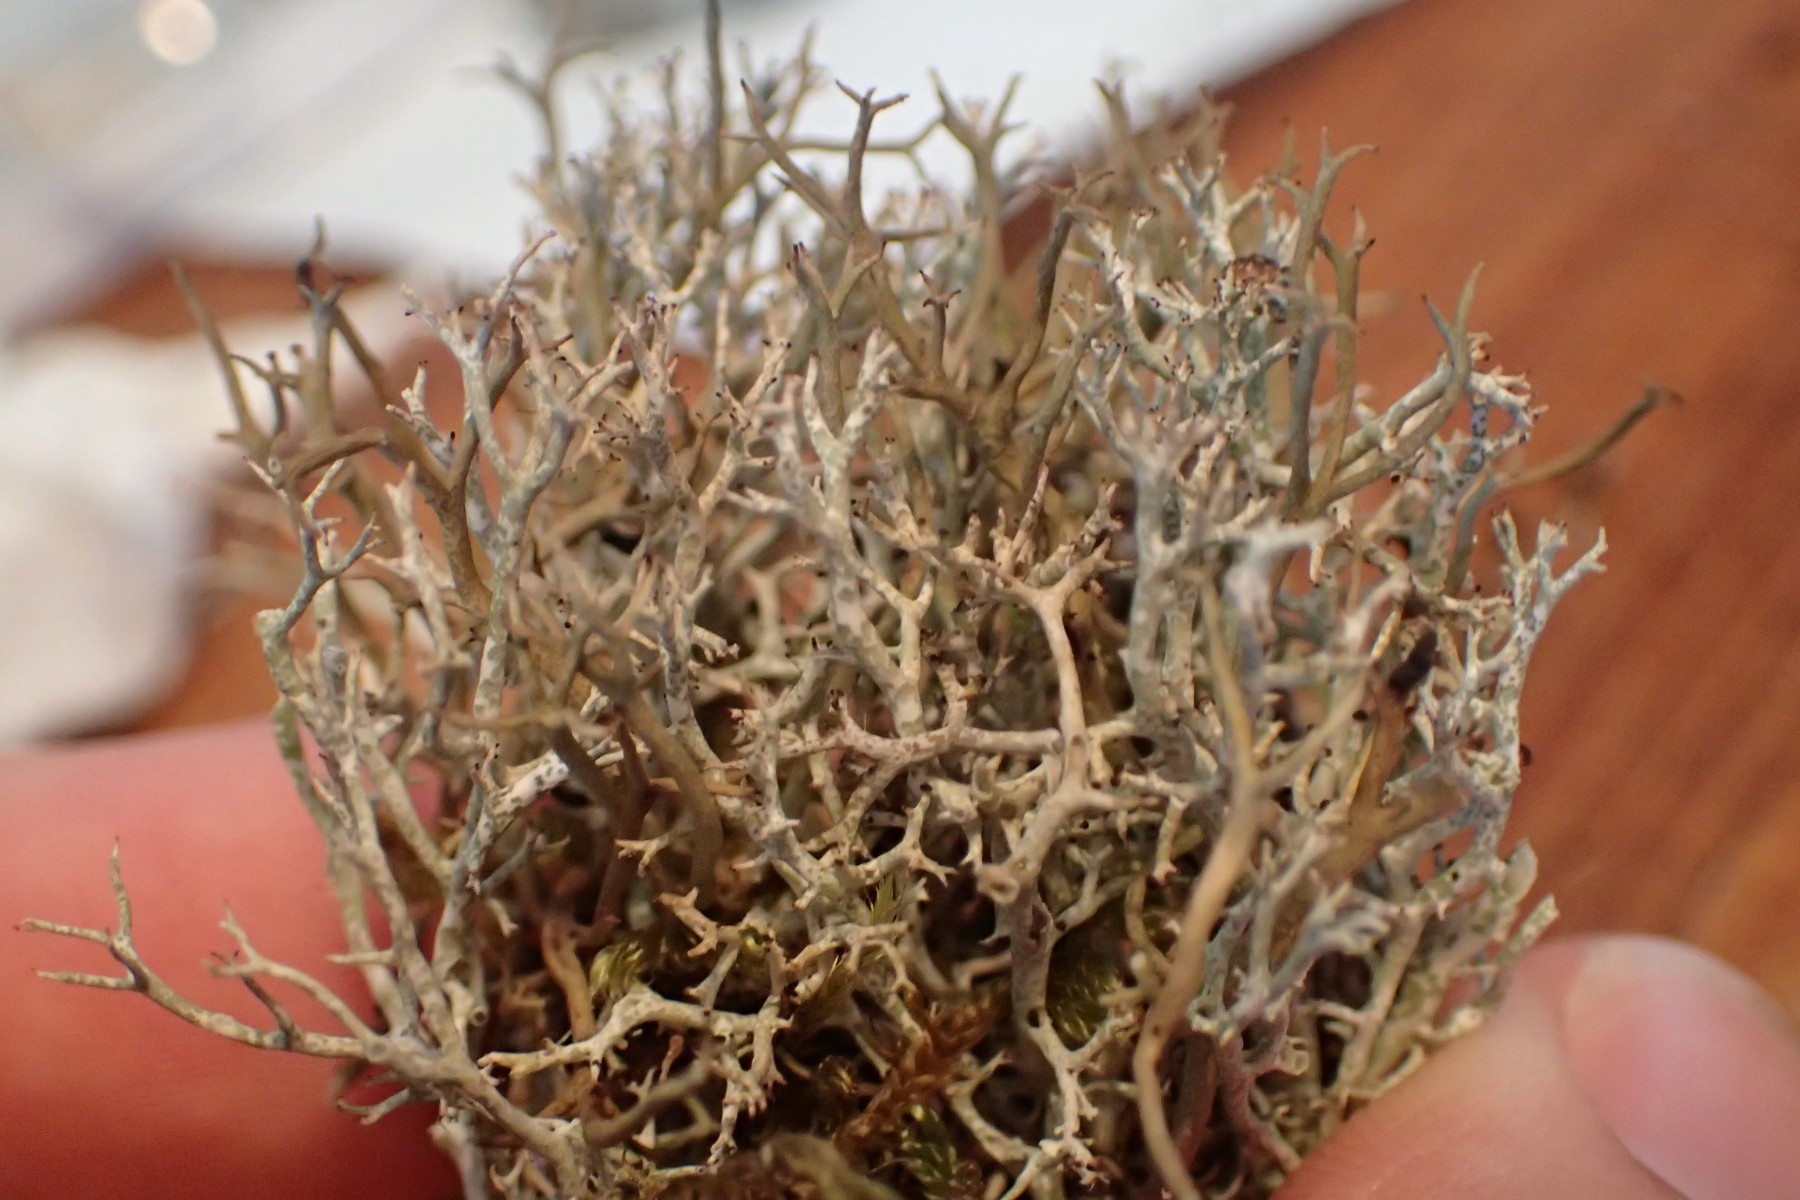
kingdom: Fungi
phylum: Ascomycota
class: Lecanoromycetes
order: Lecanorales
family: Cladoniaceae
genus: Cladonia
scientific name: Cladonia rangiformis
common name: spættet bægerlav
